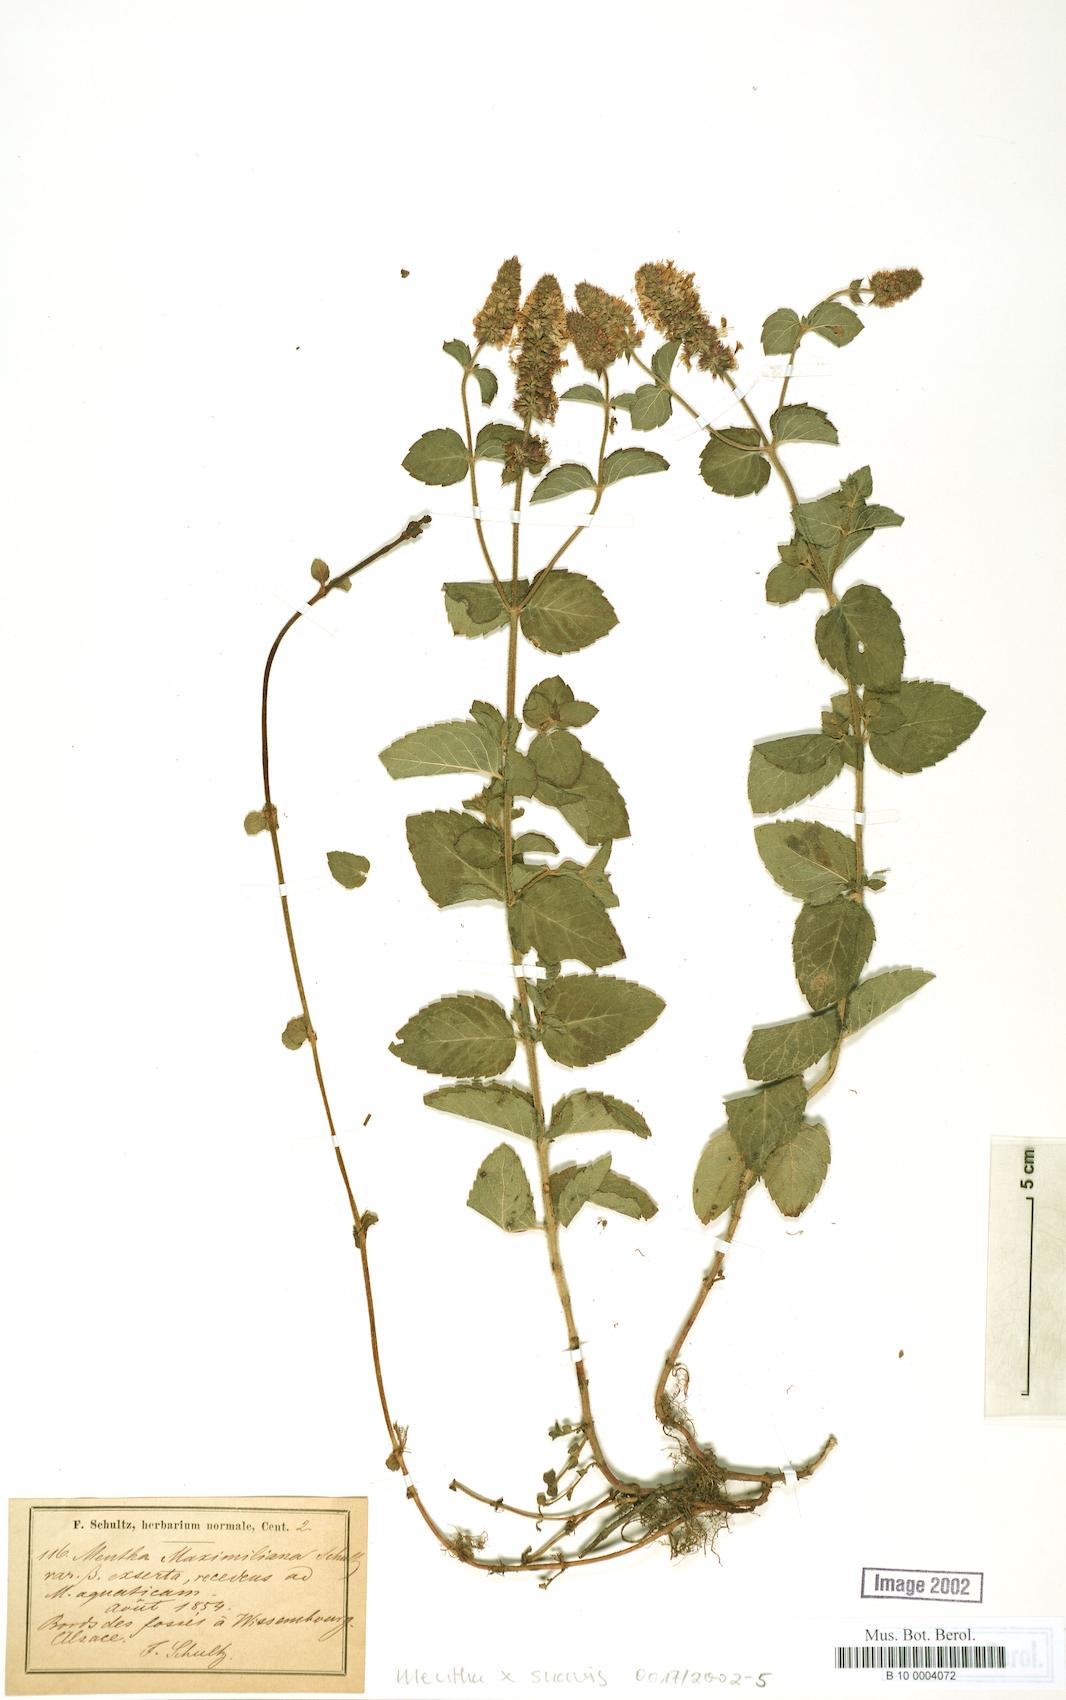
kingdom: Plantae
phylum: Tracheophyta
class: Magnoliopsida
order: Lamiales
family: Lamiaceae
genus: Mentha
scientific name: Mentha suavis
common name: Sweet mint
